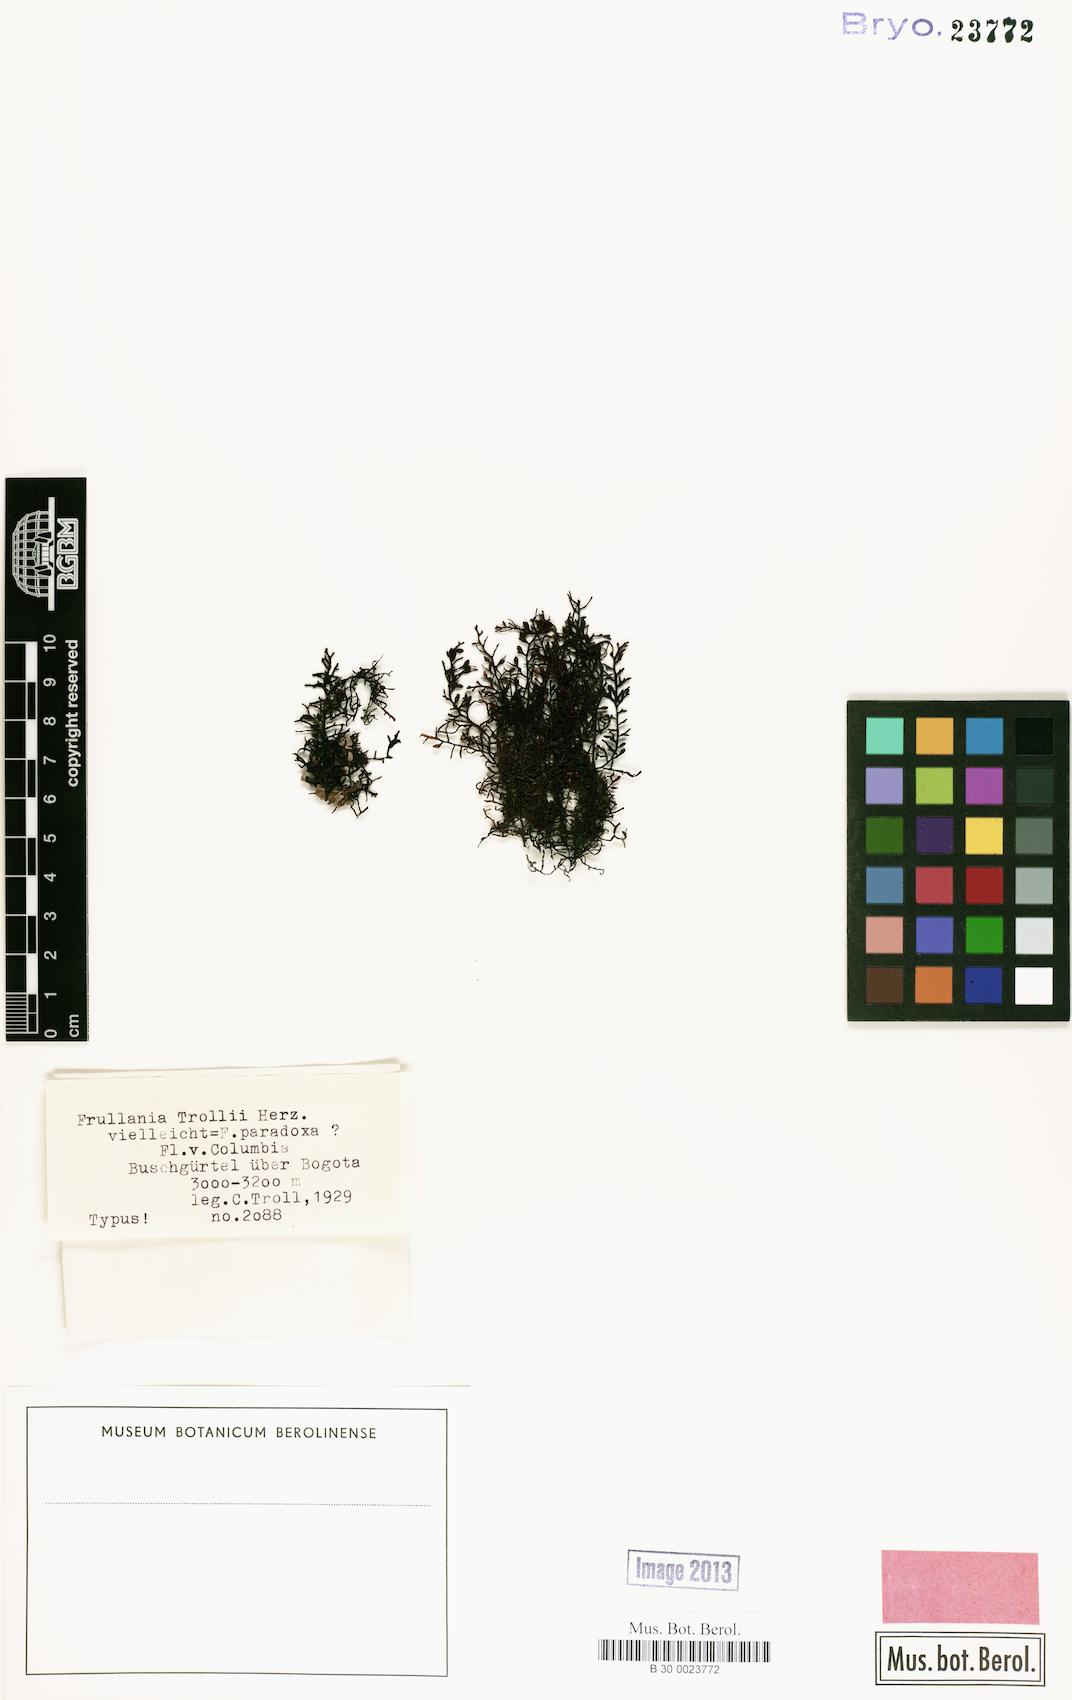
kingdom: Plantae
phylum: Marchantiophyta
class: Jungermanniopsida
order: Porellales
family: Frullaniaceae
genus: Frullania
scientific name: Frullania paradoxa
